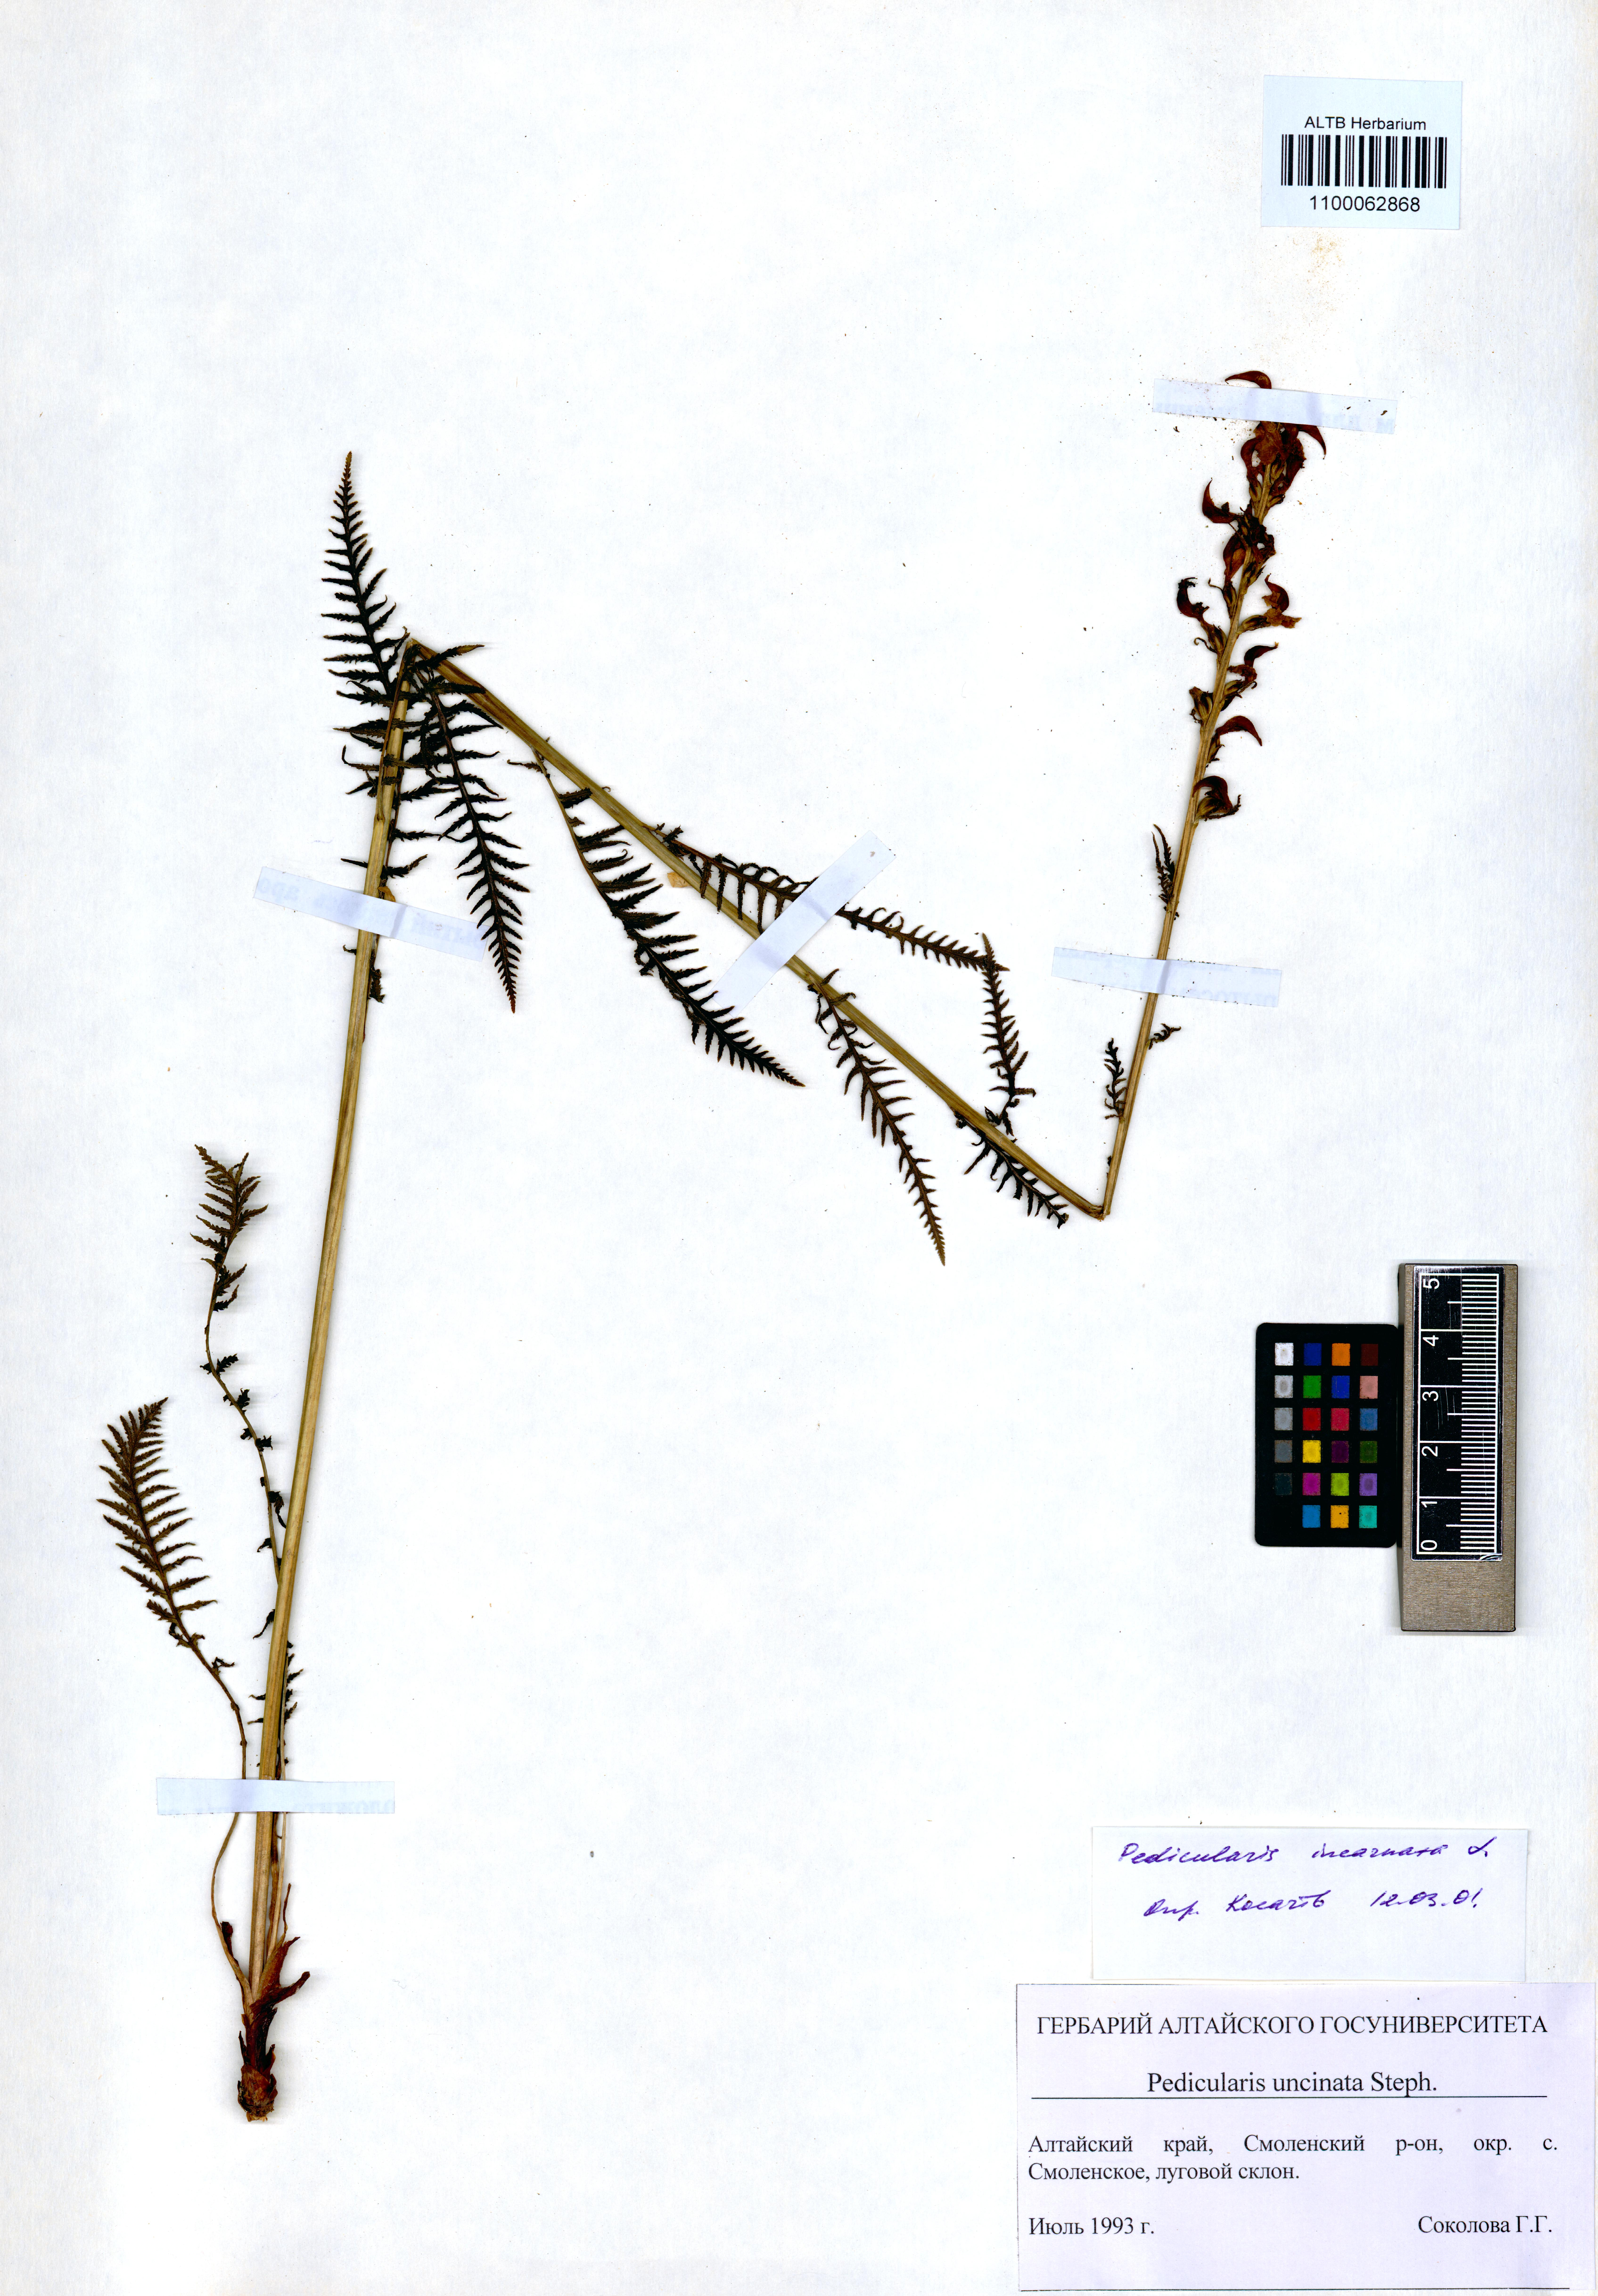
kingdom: Plantae
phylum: Tracheophyta
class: Magnoliopsida
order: Lamiales
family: Orobanchaceae
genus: Pedicularis
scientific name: Pedicularis incarnata
